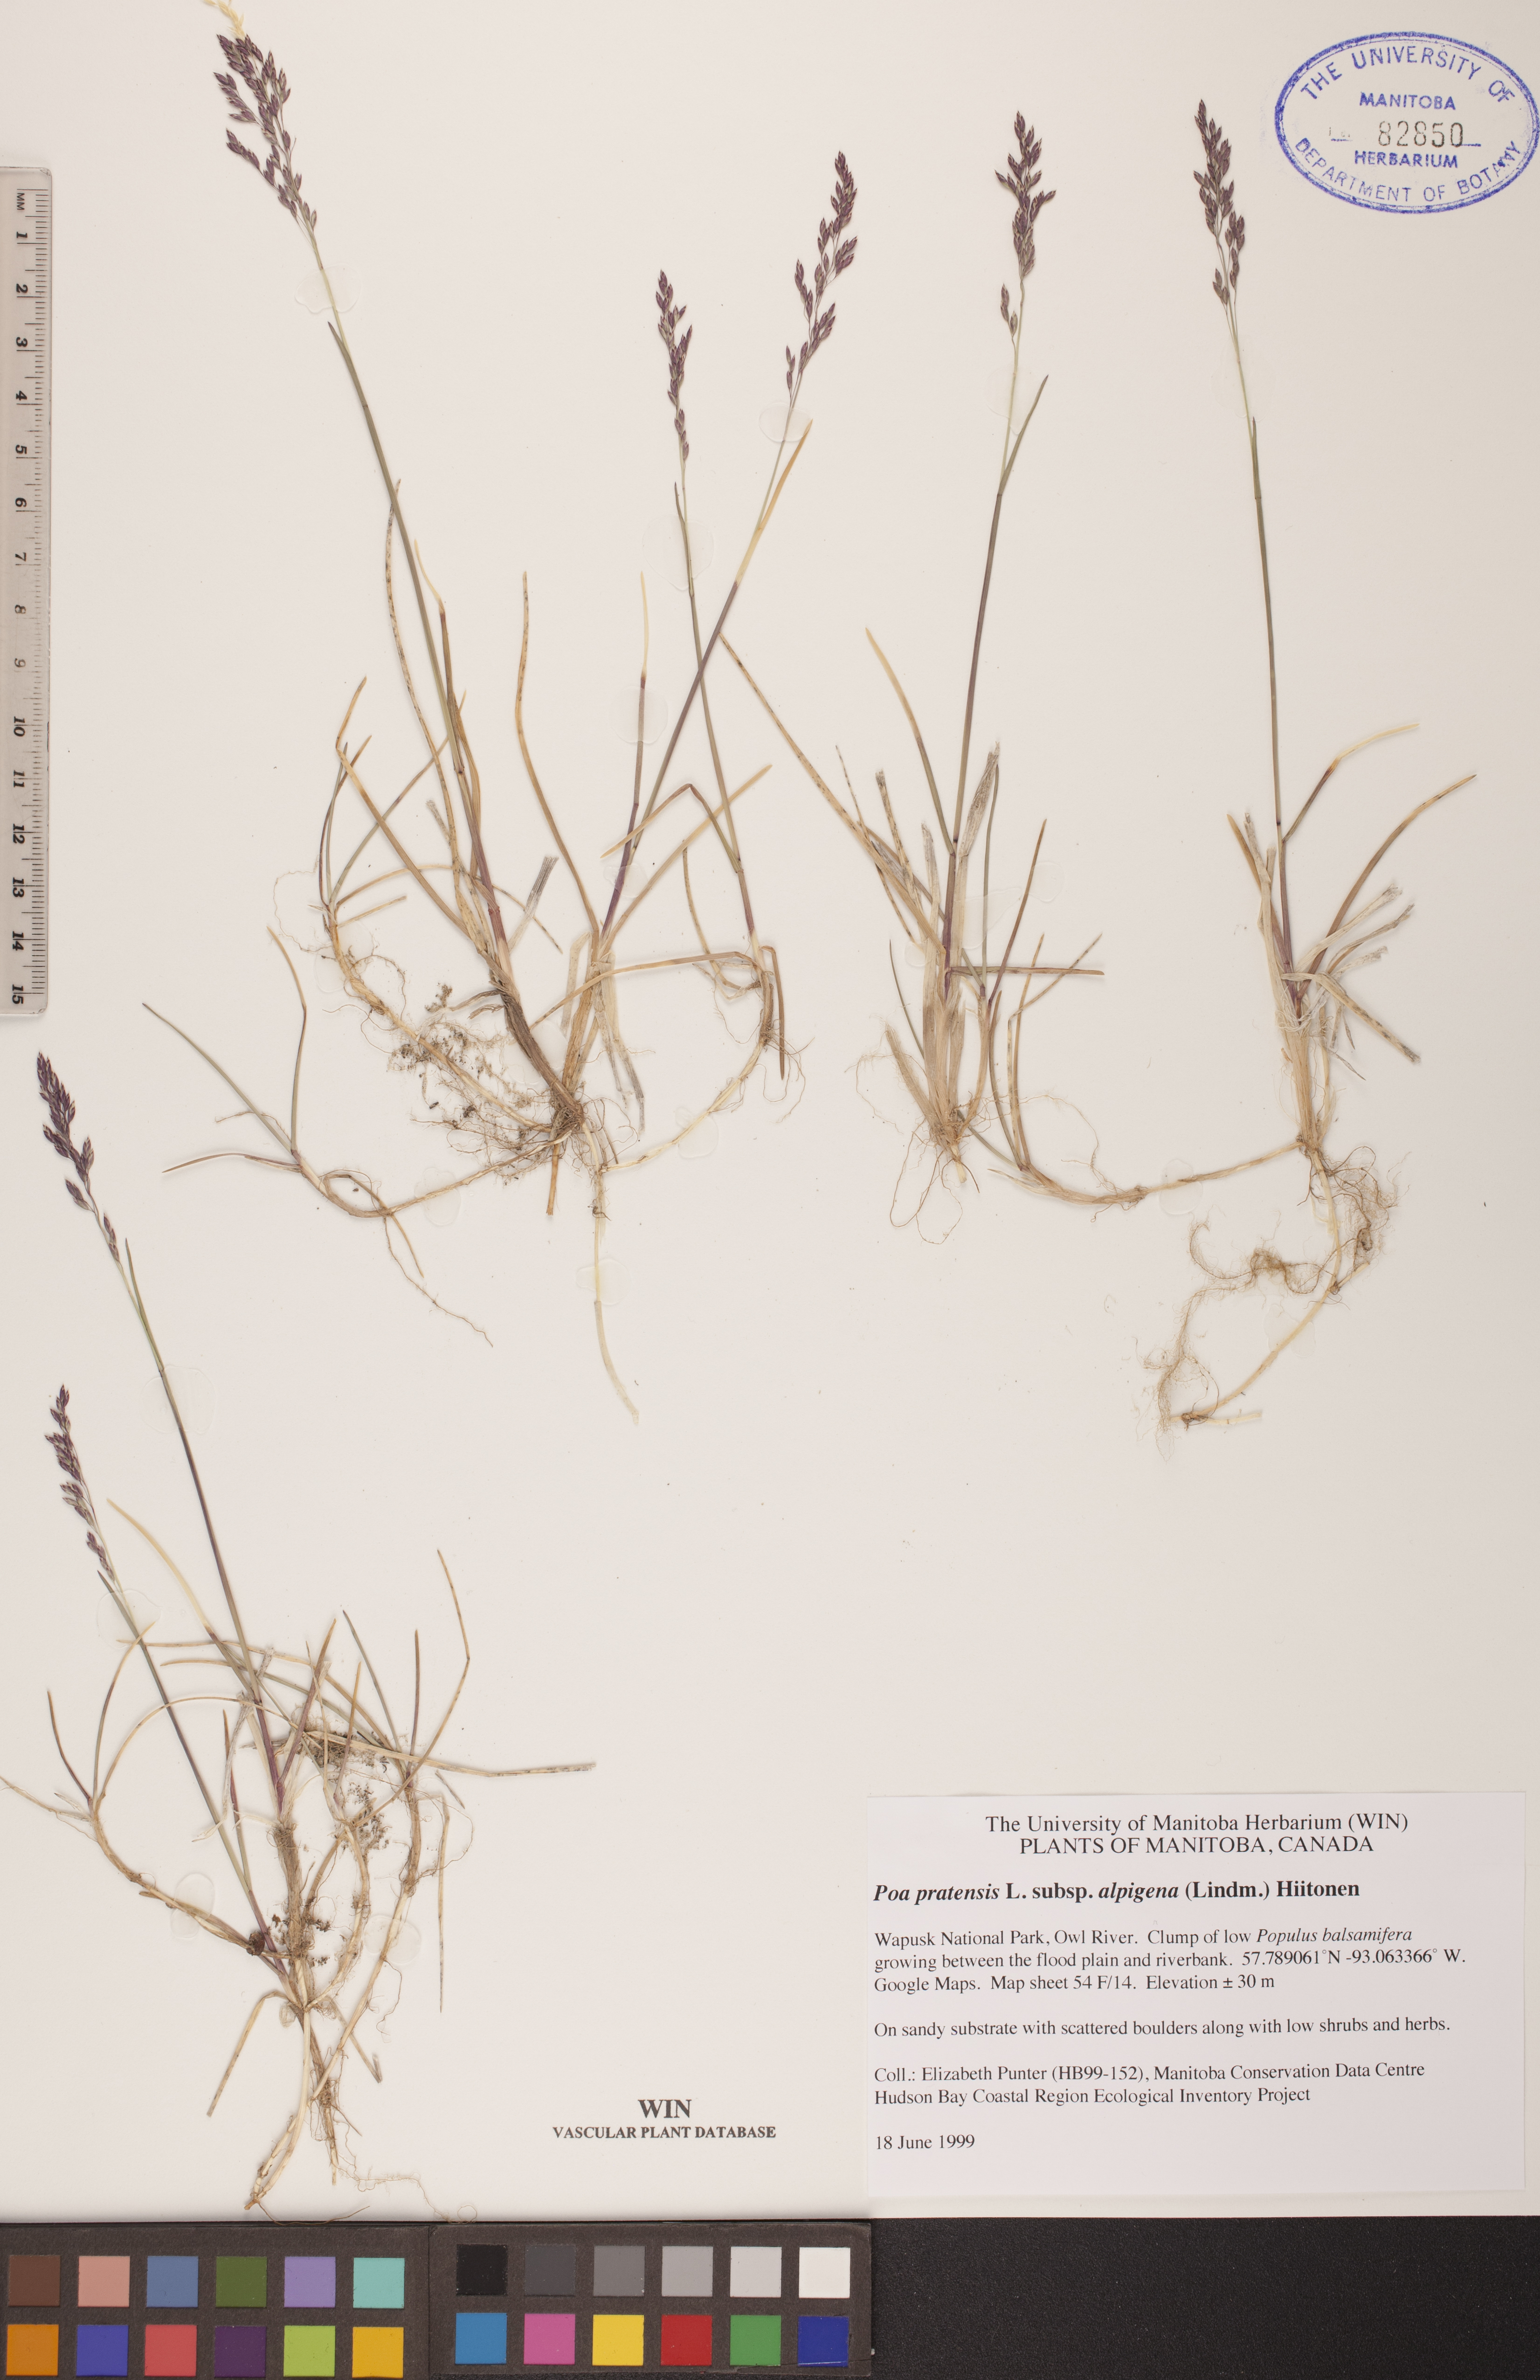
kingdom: Plantae
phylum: Tracheophyta
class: Liliopsida
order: Poales
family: Poaceae
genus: Poa
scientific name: Poa alpigena
